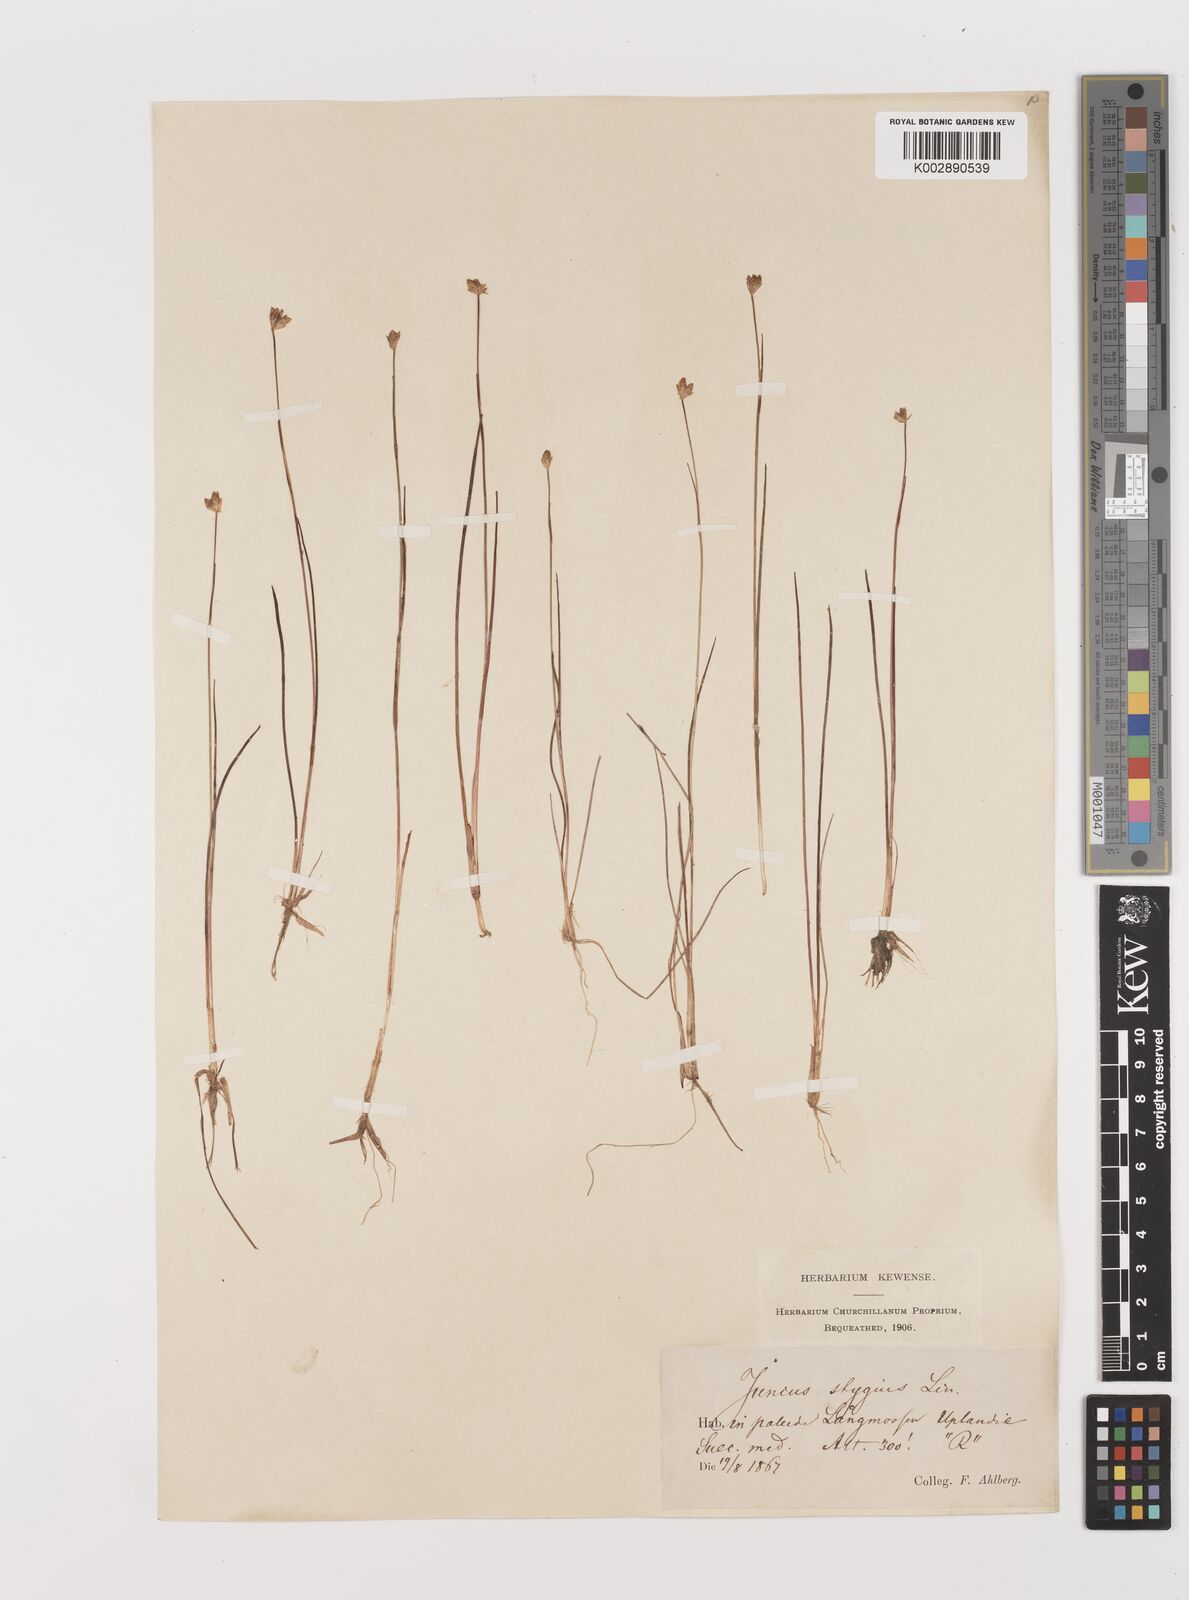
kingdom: Plantae
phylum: Tracheophyta
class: Liliopsida
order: Poales
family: Juncaceae
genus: Juncus
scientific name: Juncus stygius
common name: Bog rush
